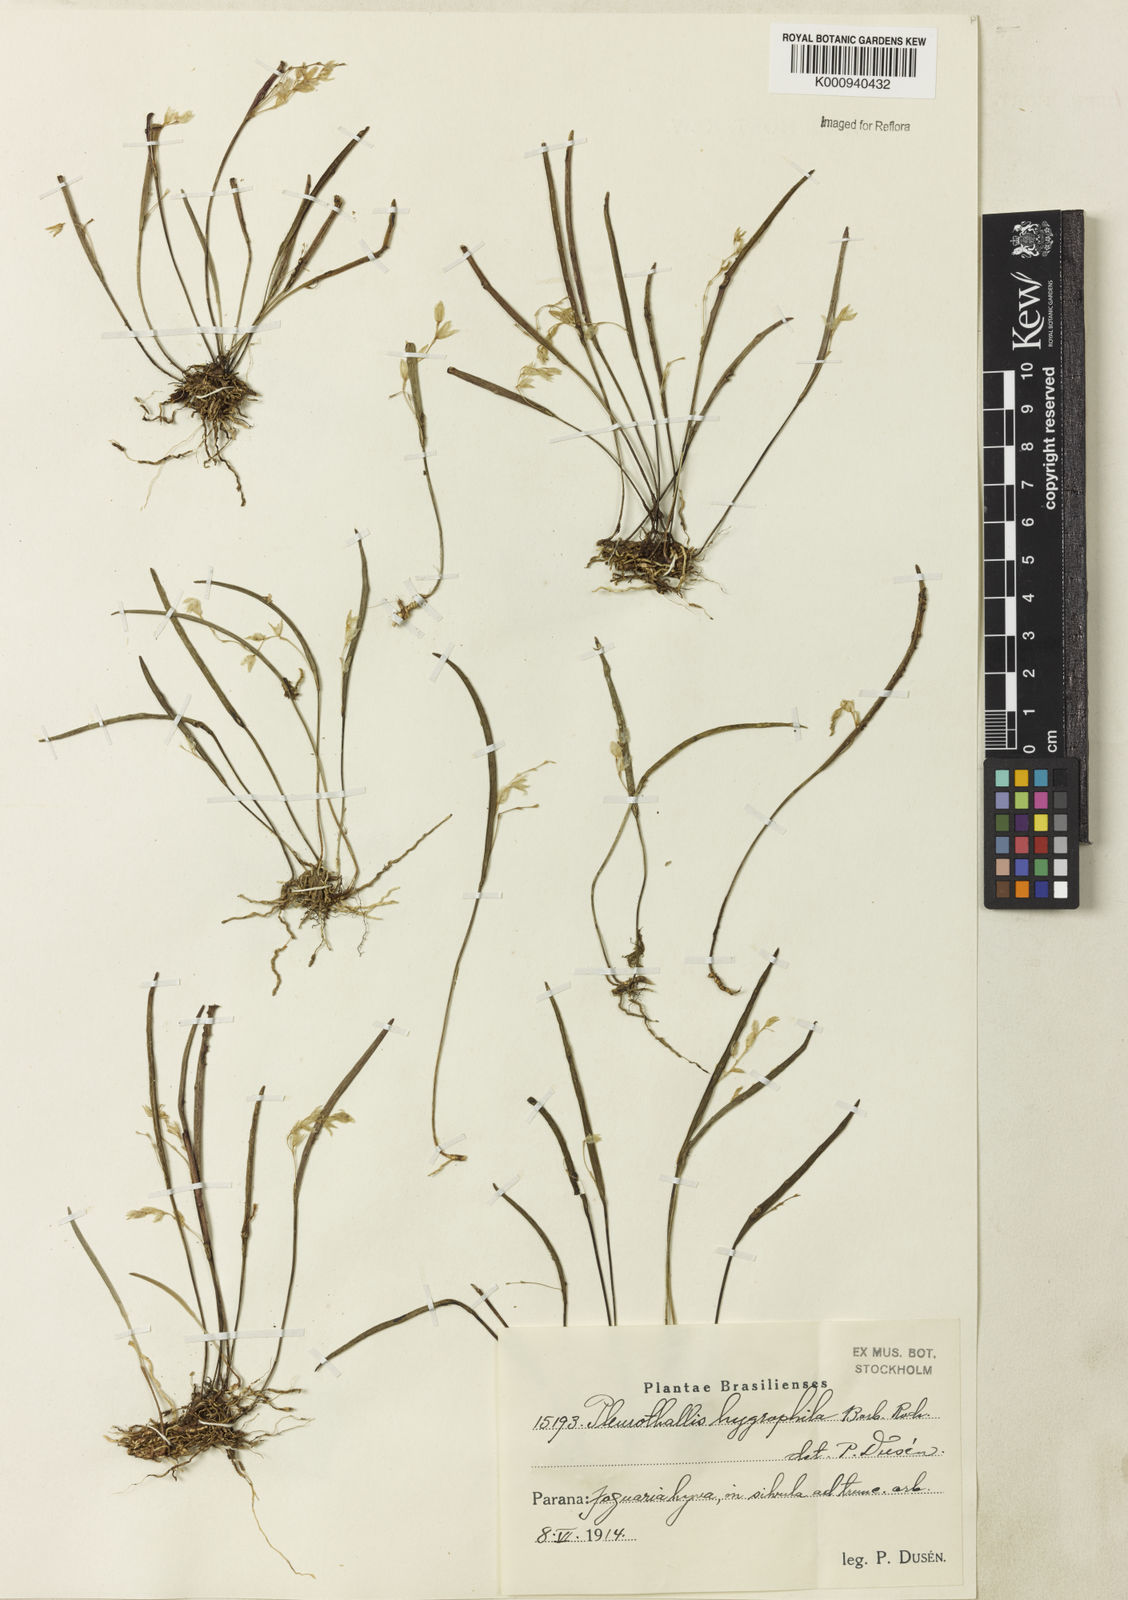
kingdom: Plantae
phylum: Tracheophyta
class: Liliopsida
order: Asparagales
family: Orchidaceae
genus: Acianthera
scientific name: Acianthera hygrophila
